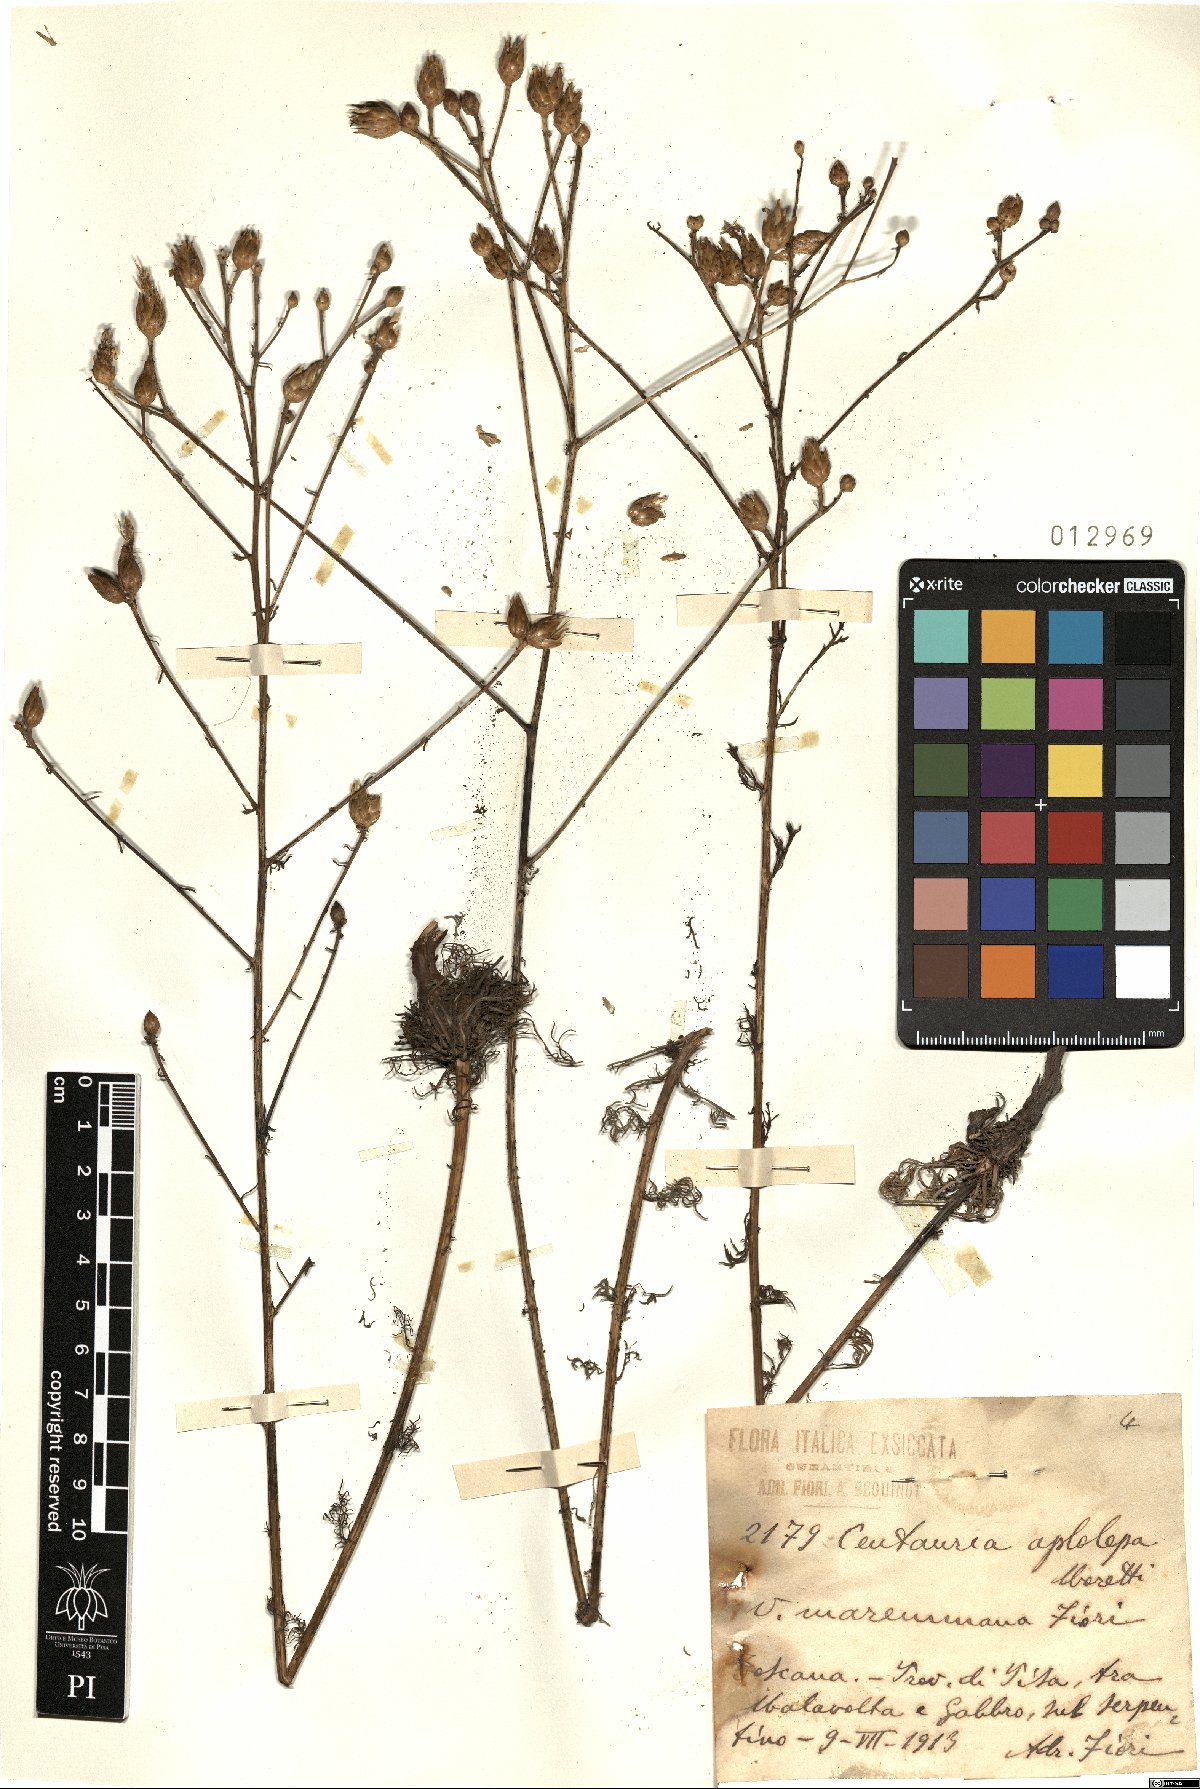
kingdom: Plantae
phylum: Tracheophyta
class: Magnoliopsida
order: Asterales
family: Asteraceae
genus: Centaurea
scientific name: Centaurea aplolepa
